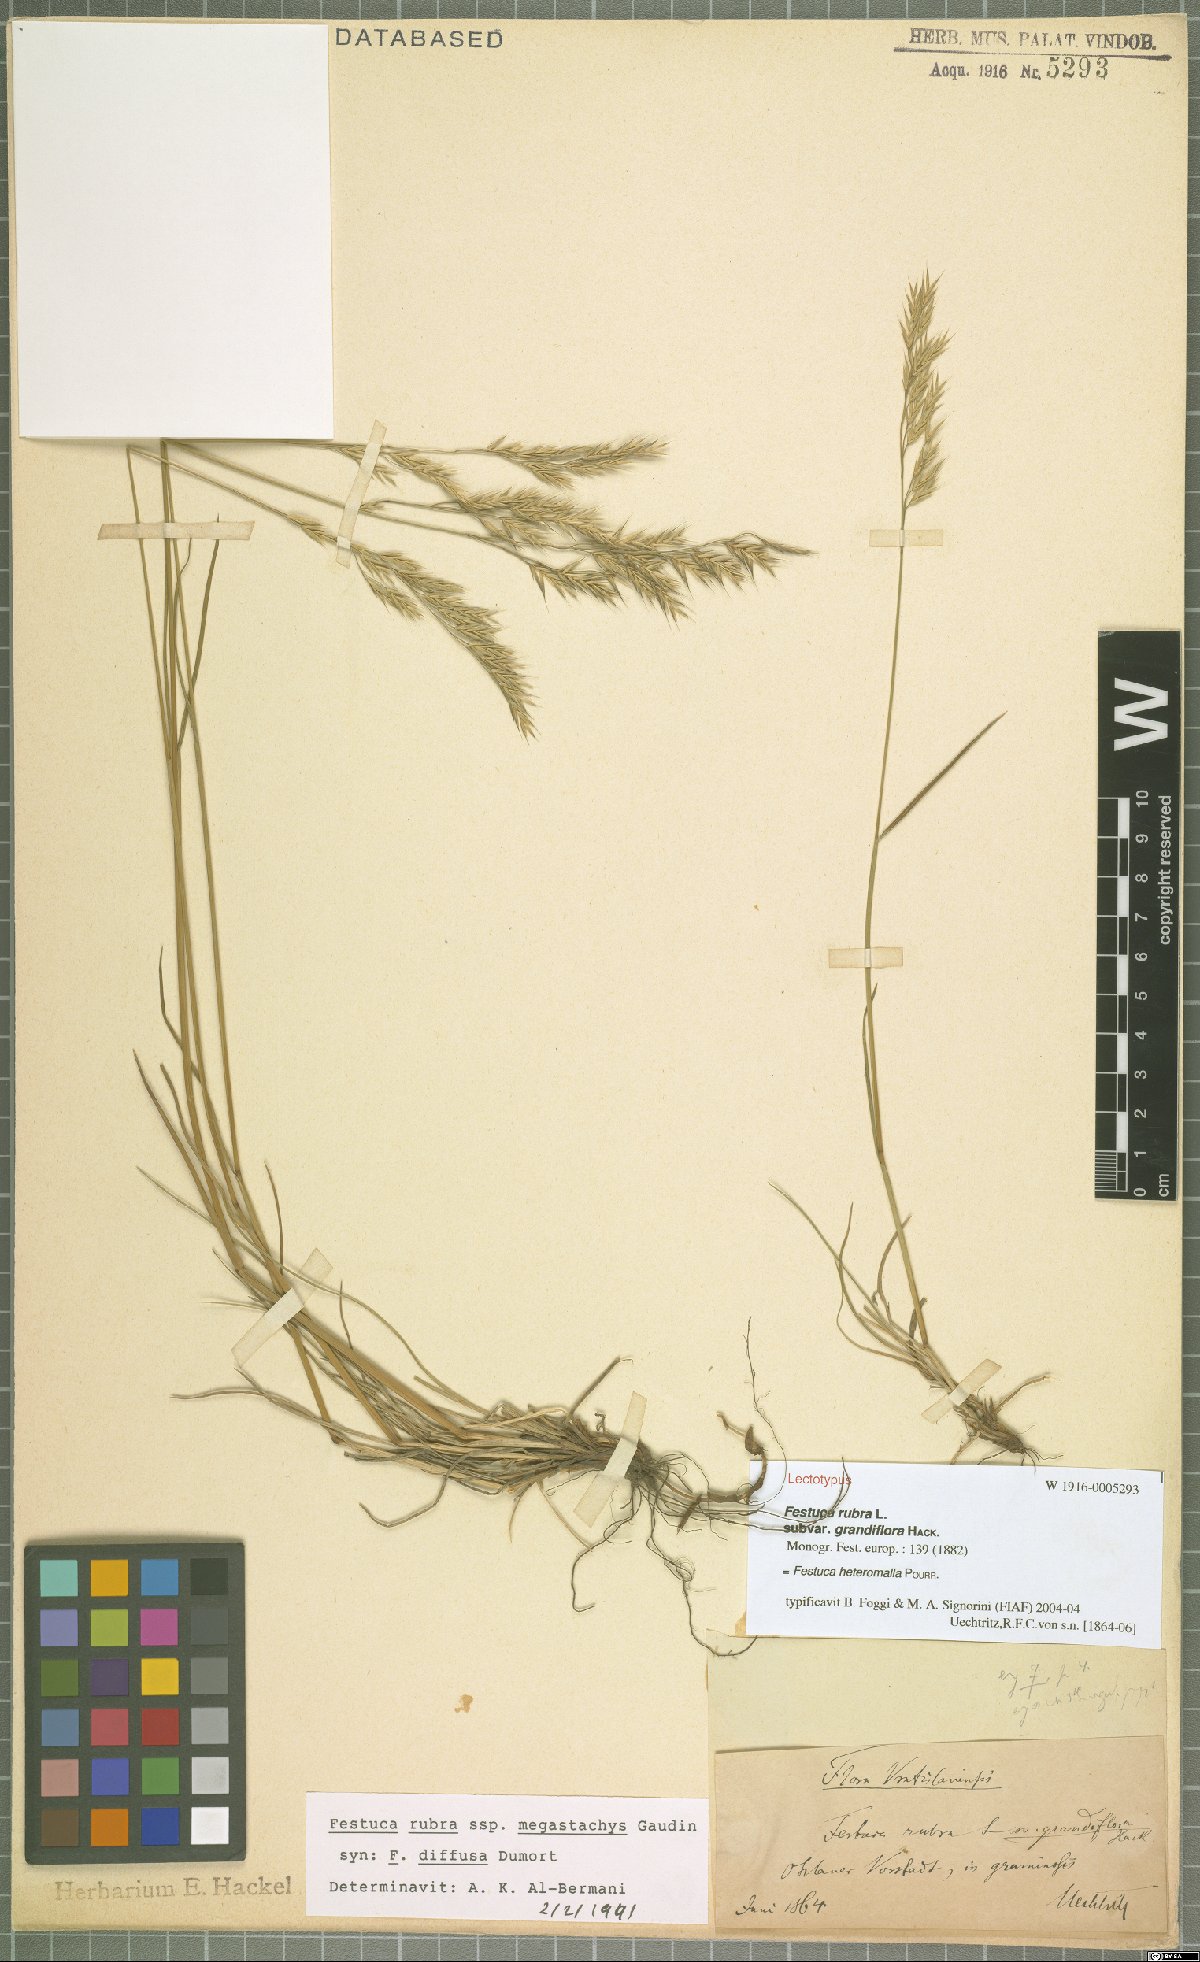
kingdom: Plantae
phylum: Tracheophyta
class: Liliopsida
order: Poales
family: Poaceae
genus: Festuca
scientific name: Festuca heteromalla
